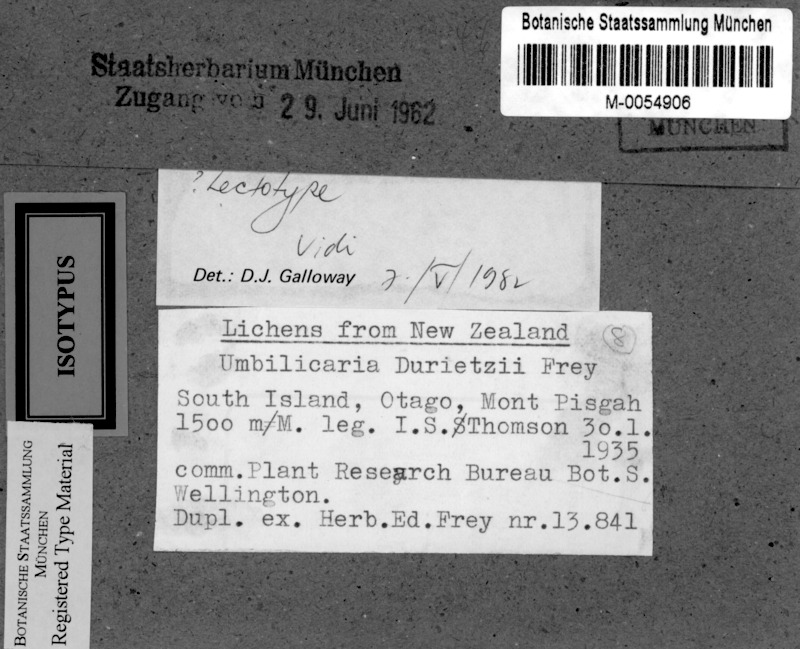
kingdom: Fungi
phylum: Ascomycota
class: Lecanoromycetes
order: Umbilicariales
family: Umbilicariaceae
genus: Umbilicaria
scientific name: Umbilicaria subaprina
